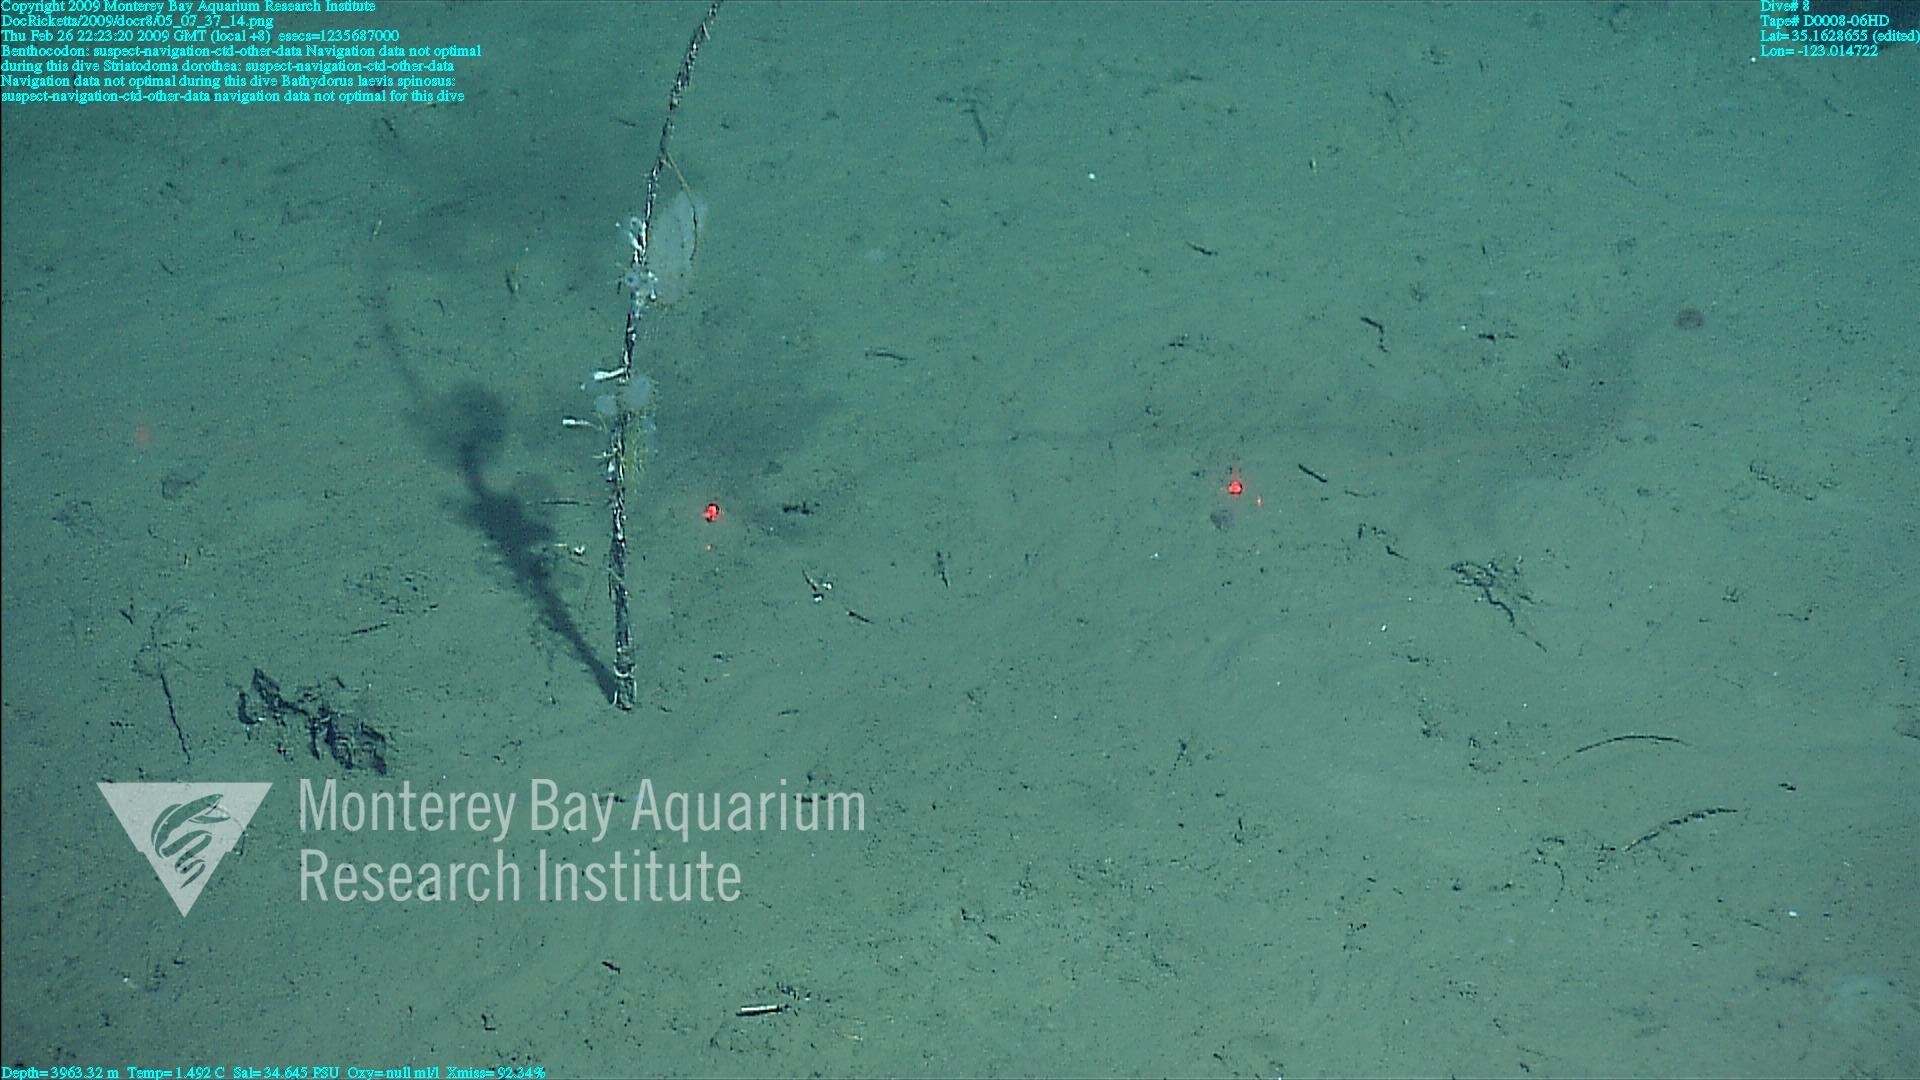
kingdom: Animalia
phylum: Porifera
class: Hexactinellida
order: Lyssacinosida
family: Rossellidae
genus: Bathydorus
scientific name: Bathydorus spinosus
